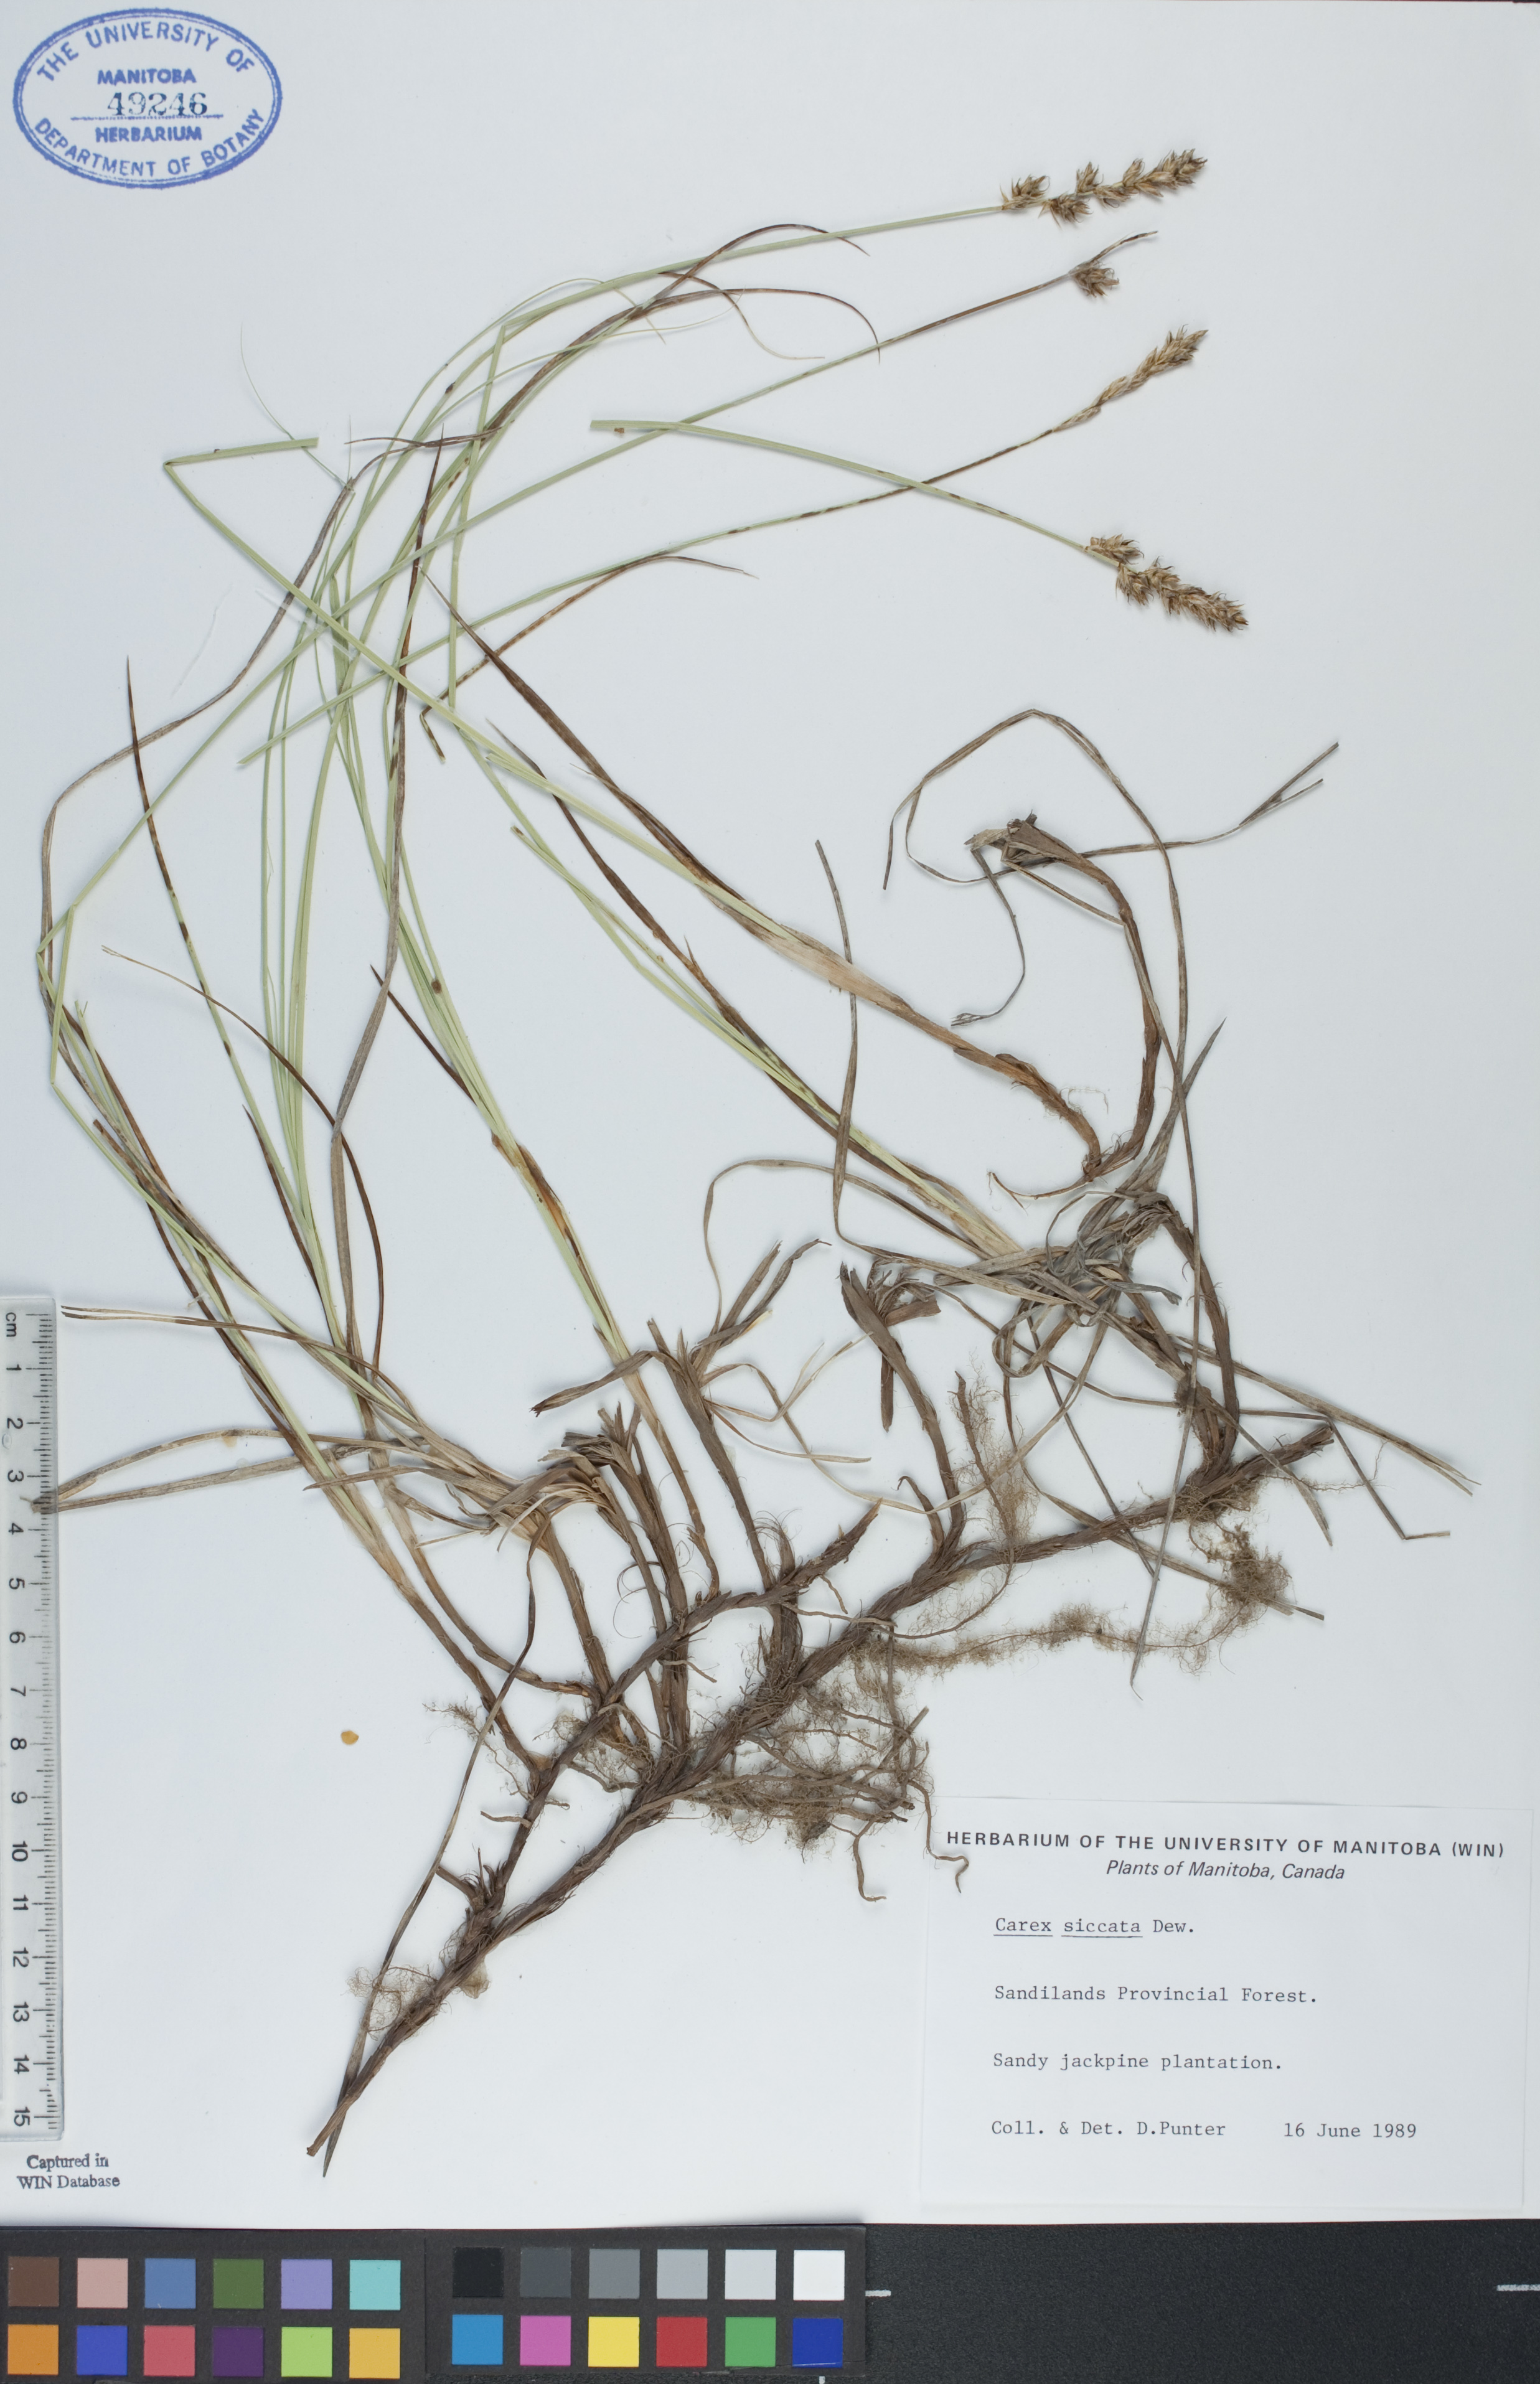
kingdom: Plantae
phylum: Tracheophyta
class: Liliopsida
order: Poales
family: Cyperaceae
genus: Carex
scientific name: Carex siccata
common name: Dry sedge
